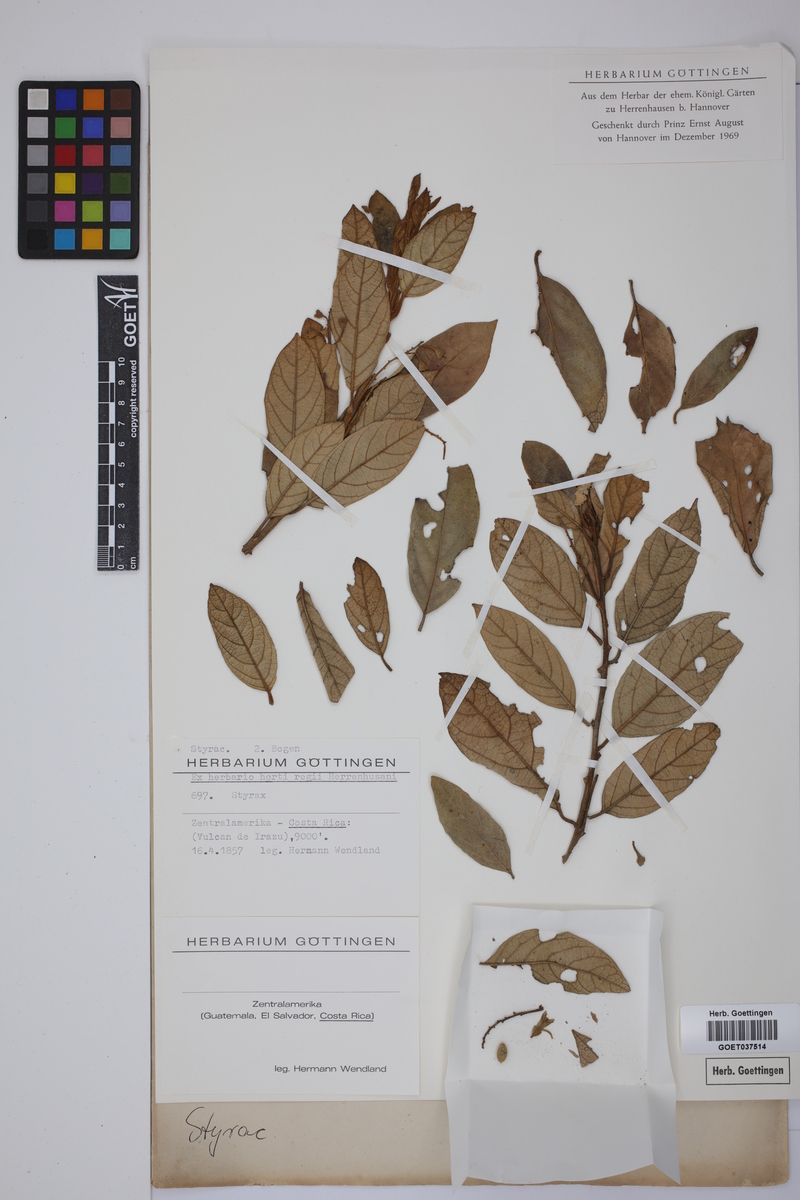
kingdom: Plantae
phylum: Tracheophyta
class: Magnoliopsida
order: Ericales
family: Styracaceae
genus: Styrax
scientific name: Styrax
